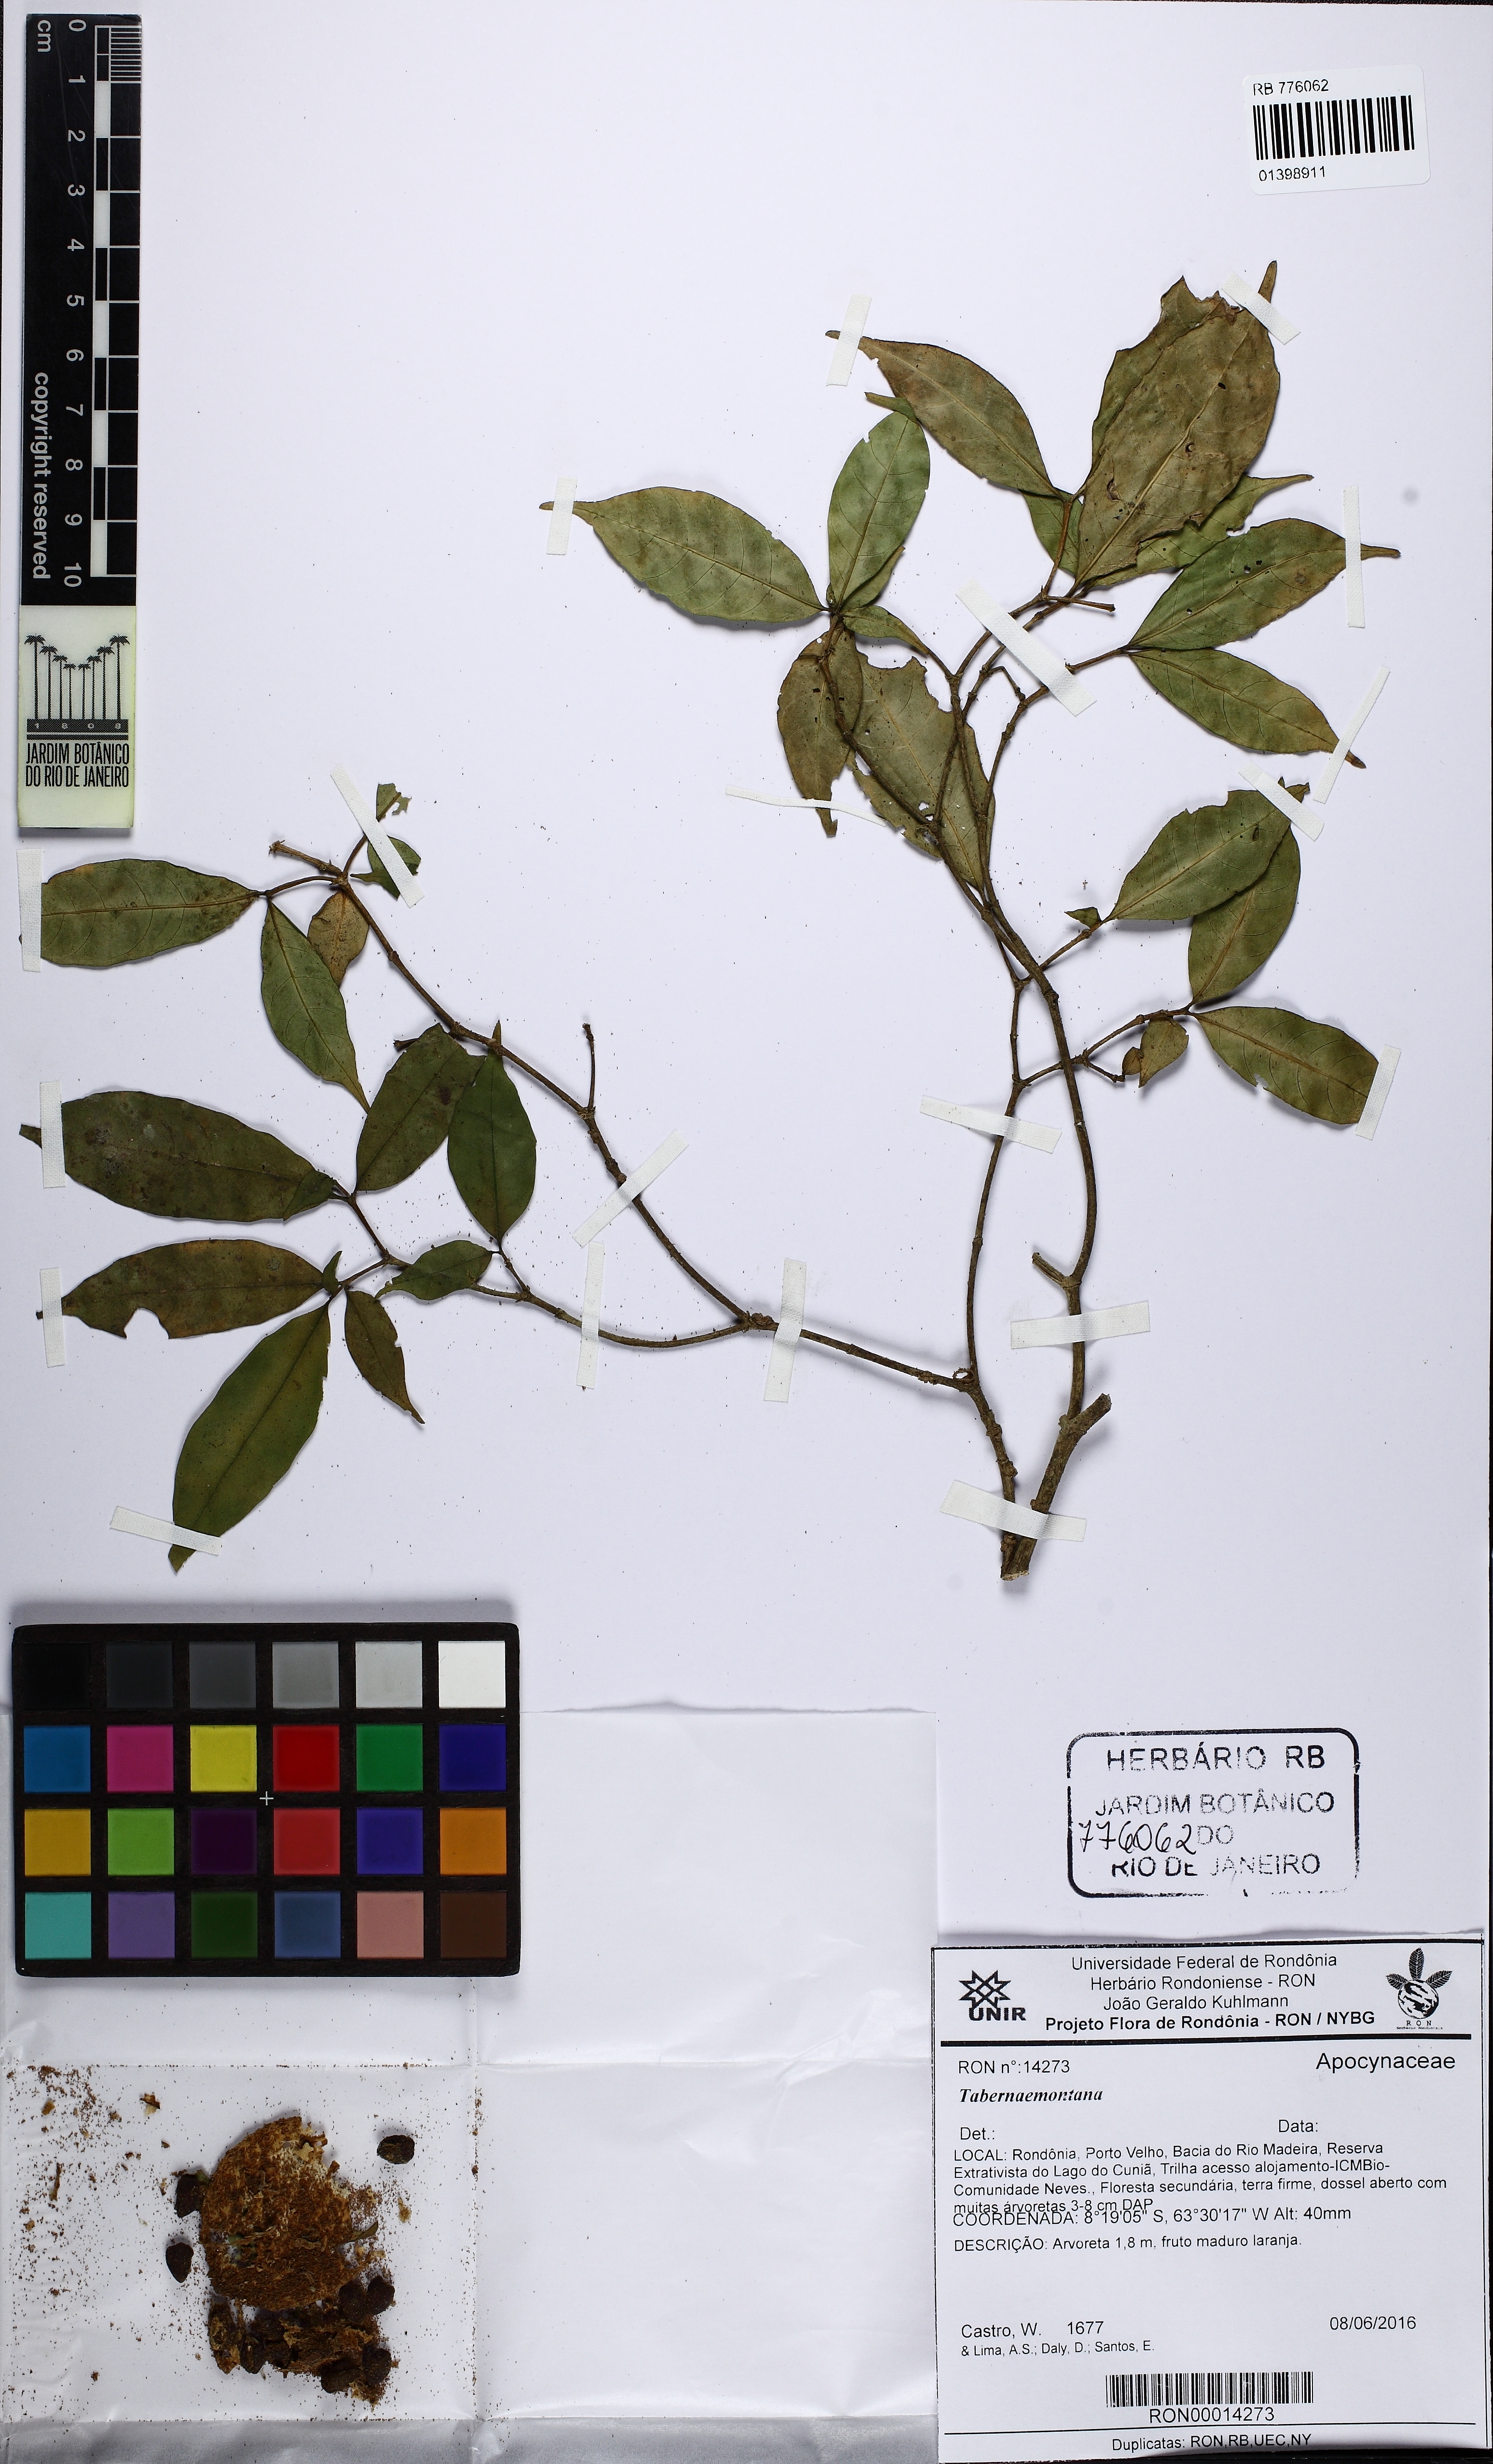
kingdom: Plantae
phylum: Tracheophyta
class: Magnoliopsida
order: Gentianales
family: Apocynaceae
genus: Tabernaemontana
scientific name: Tabernaemontana
